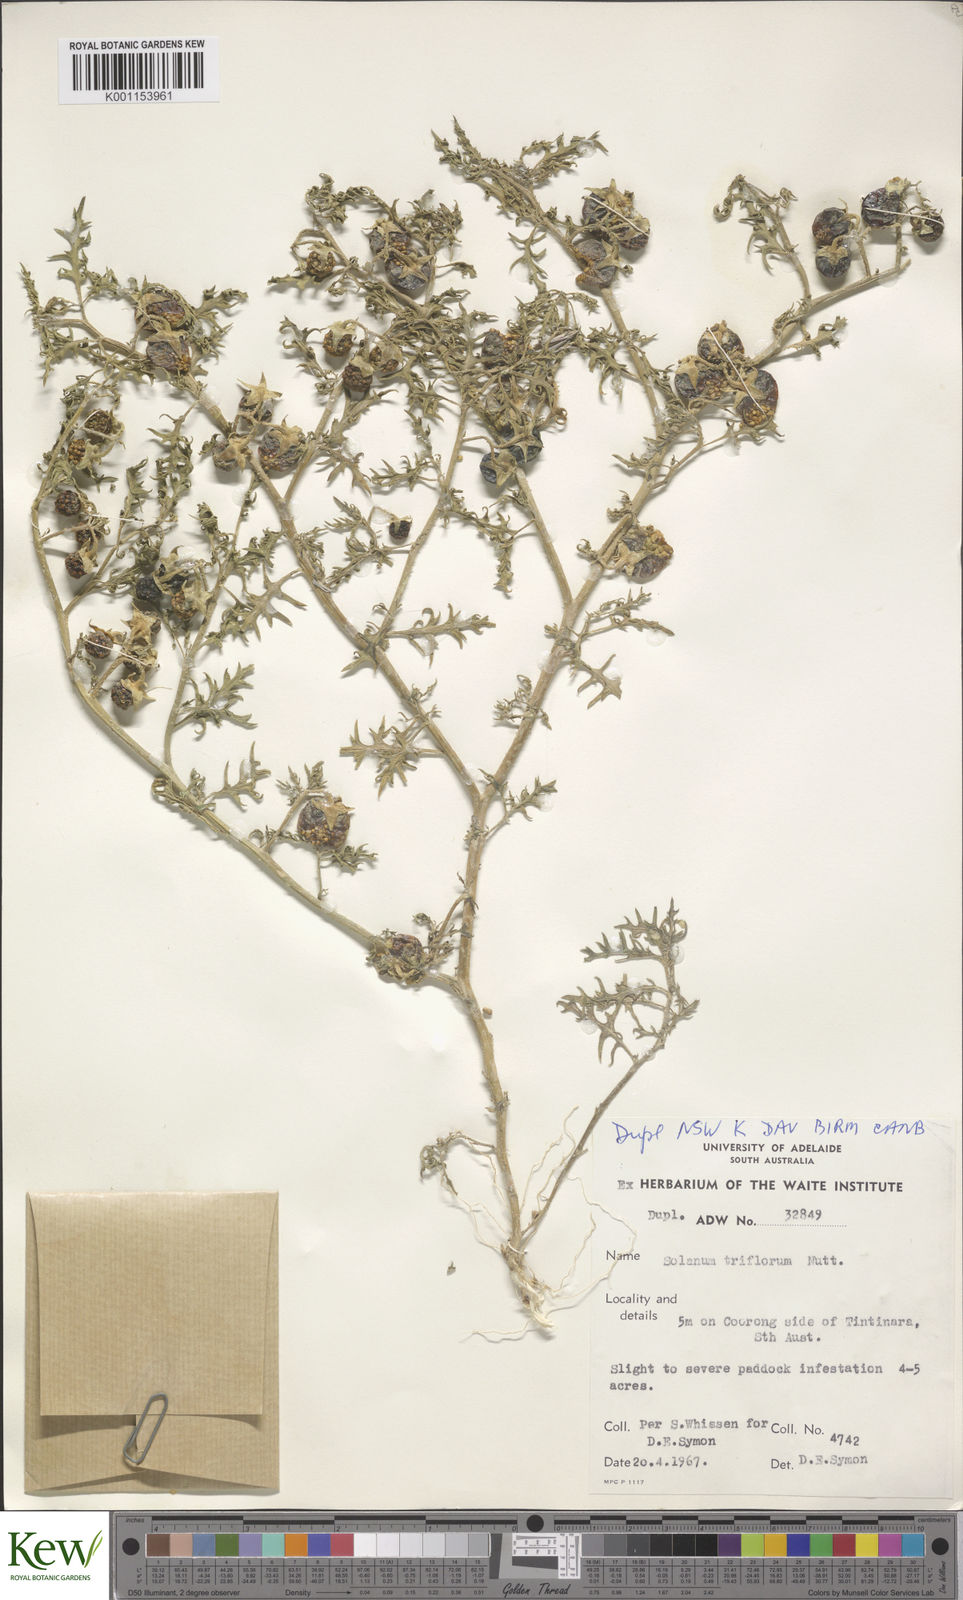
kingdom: Plantae
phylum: Tracheophyta
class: Magnoliopsida
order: Solanales
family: Solanaceae
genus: Solanum
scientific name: Solanum triflorum
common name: Small nightshade
